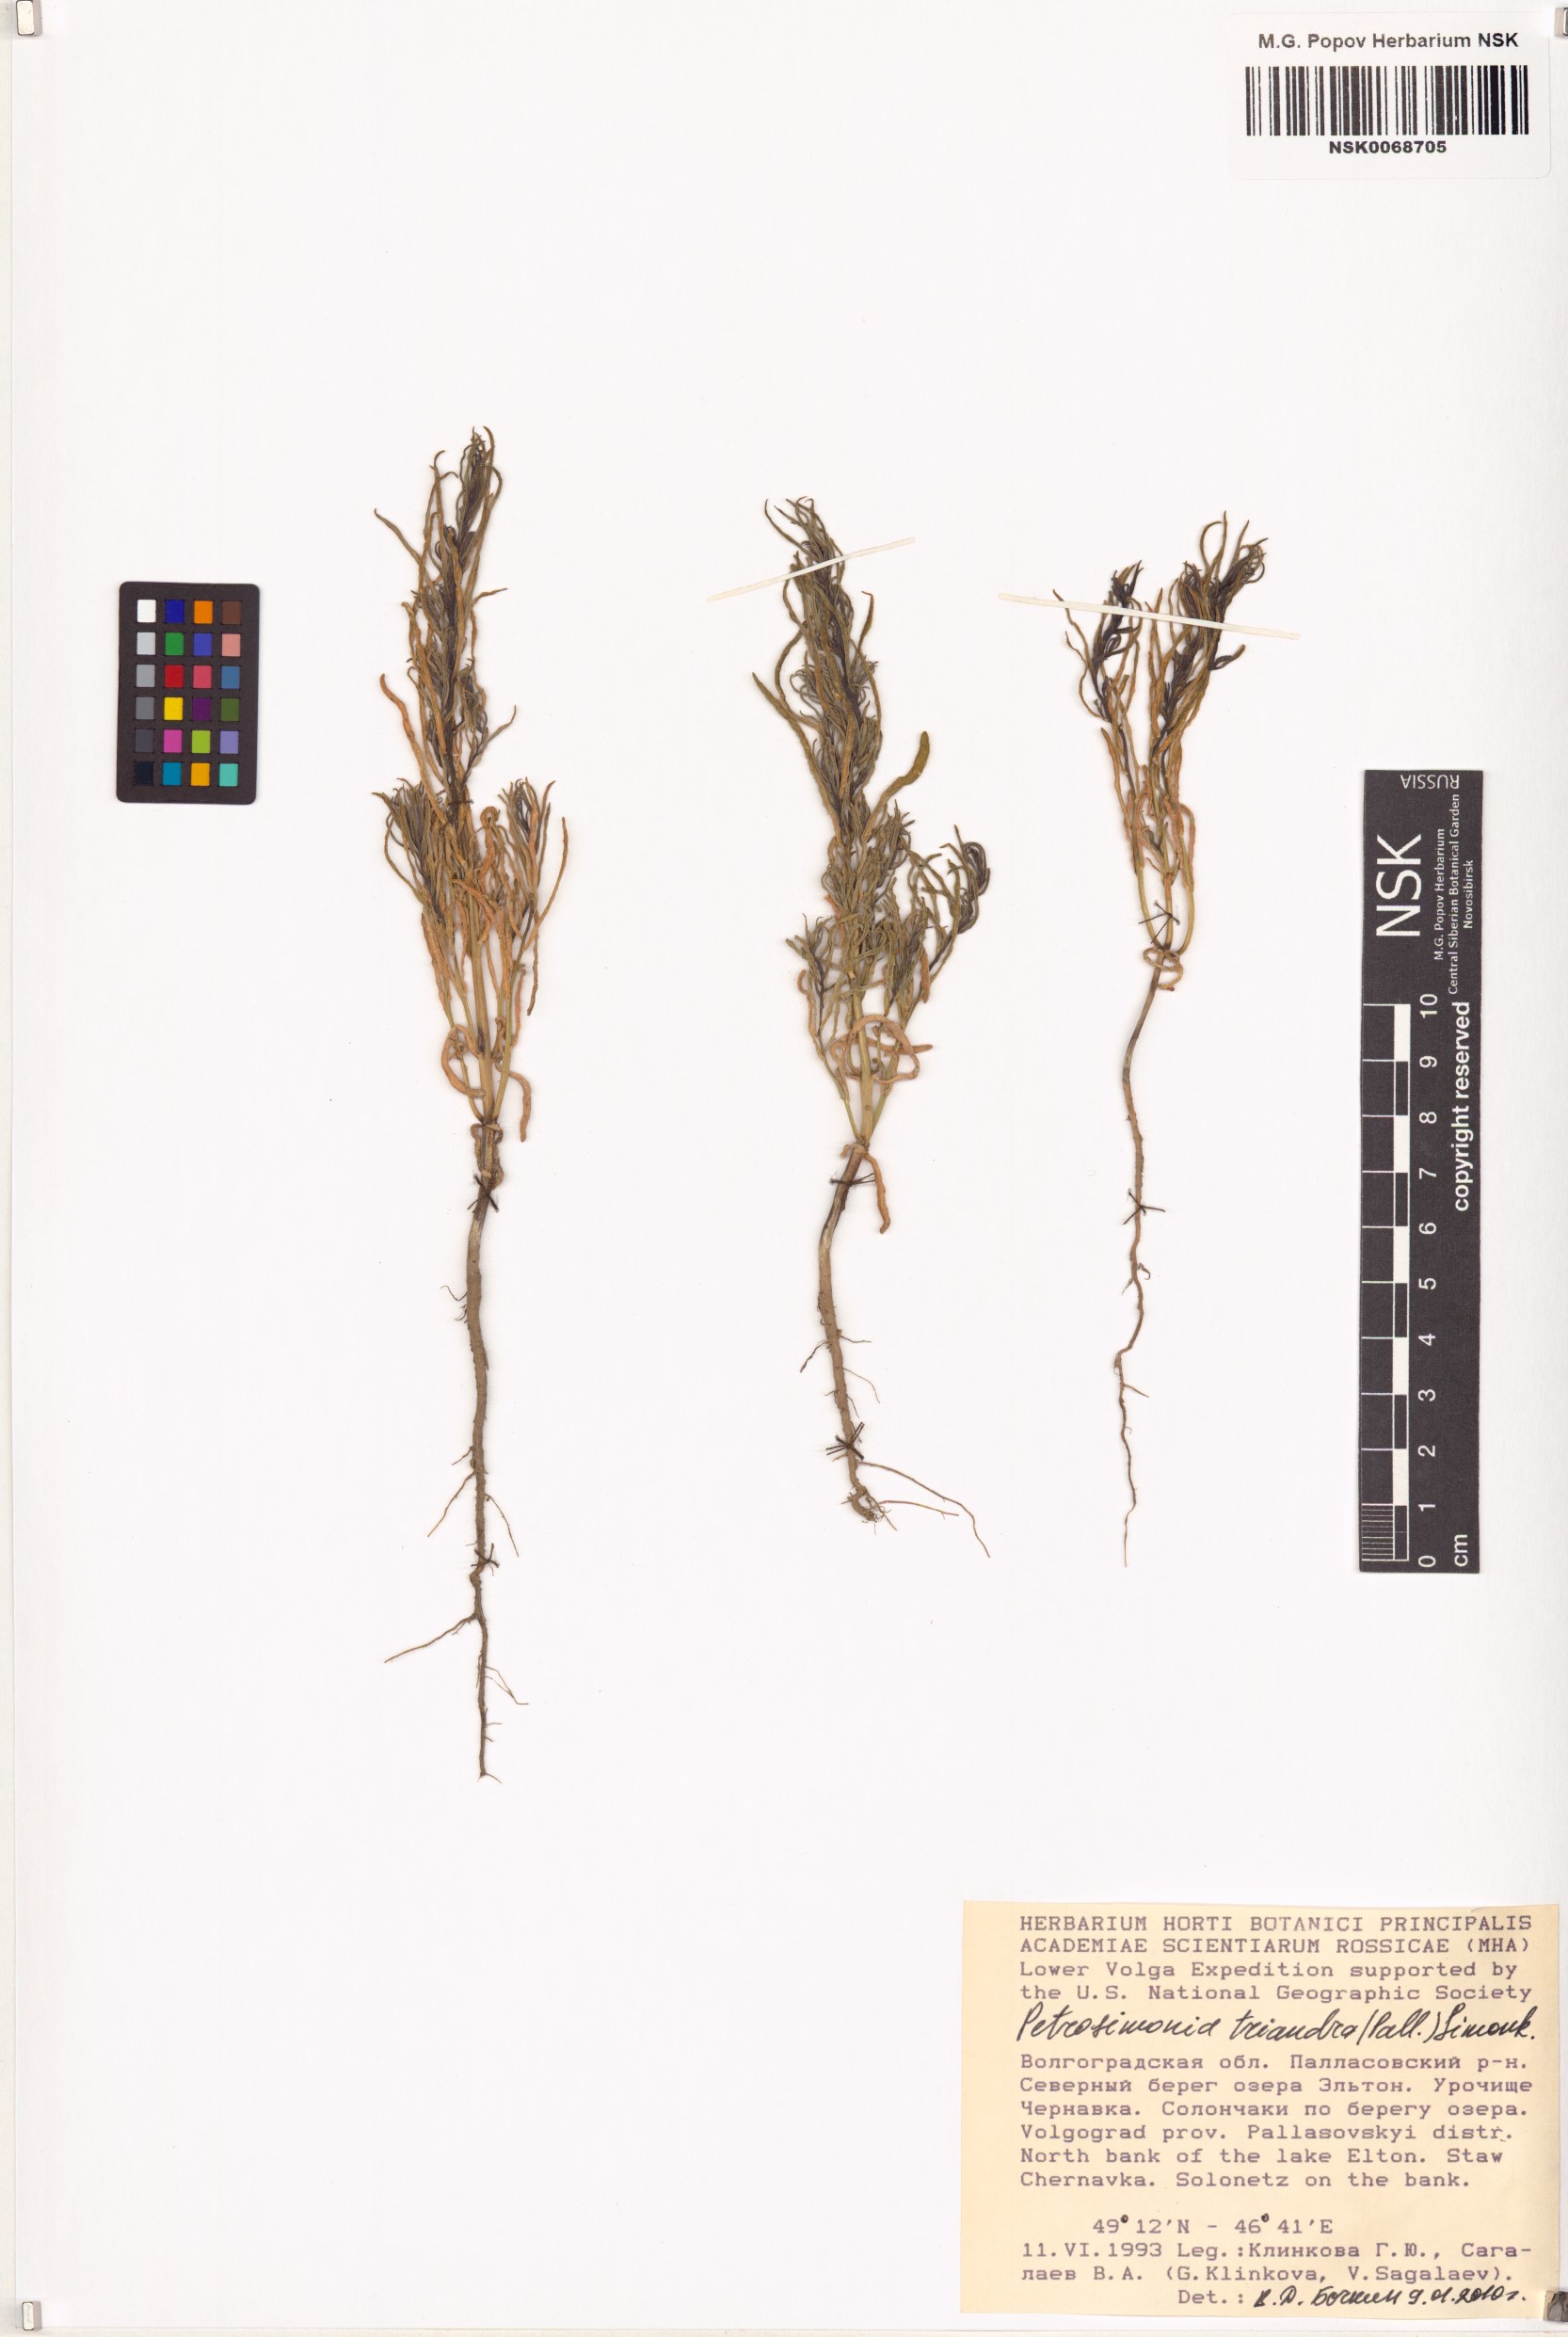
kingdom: Plantae
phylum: Tracheophyta
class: Magnoliopsida
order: Caryophyllales
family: Amaranthaceae
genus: Petrosimonia
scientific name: Petrosimonia triandra
